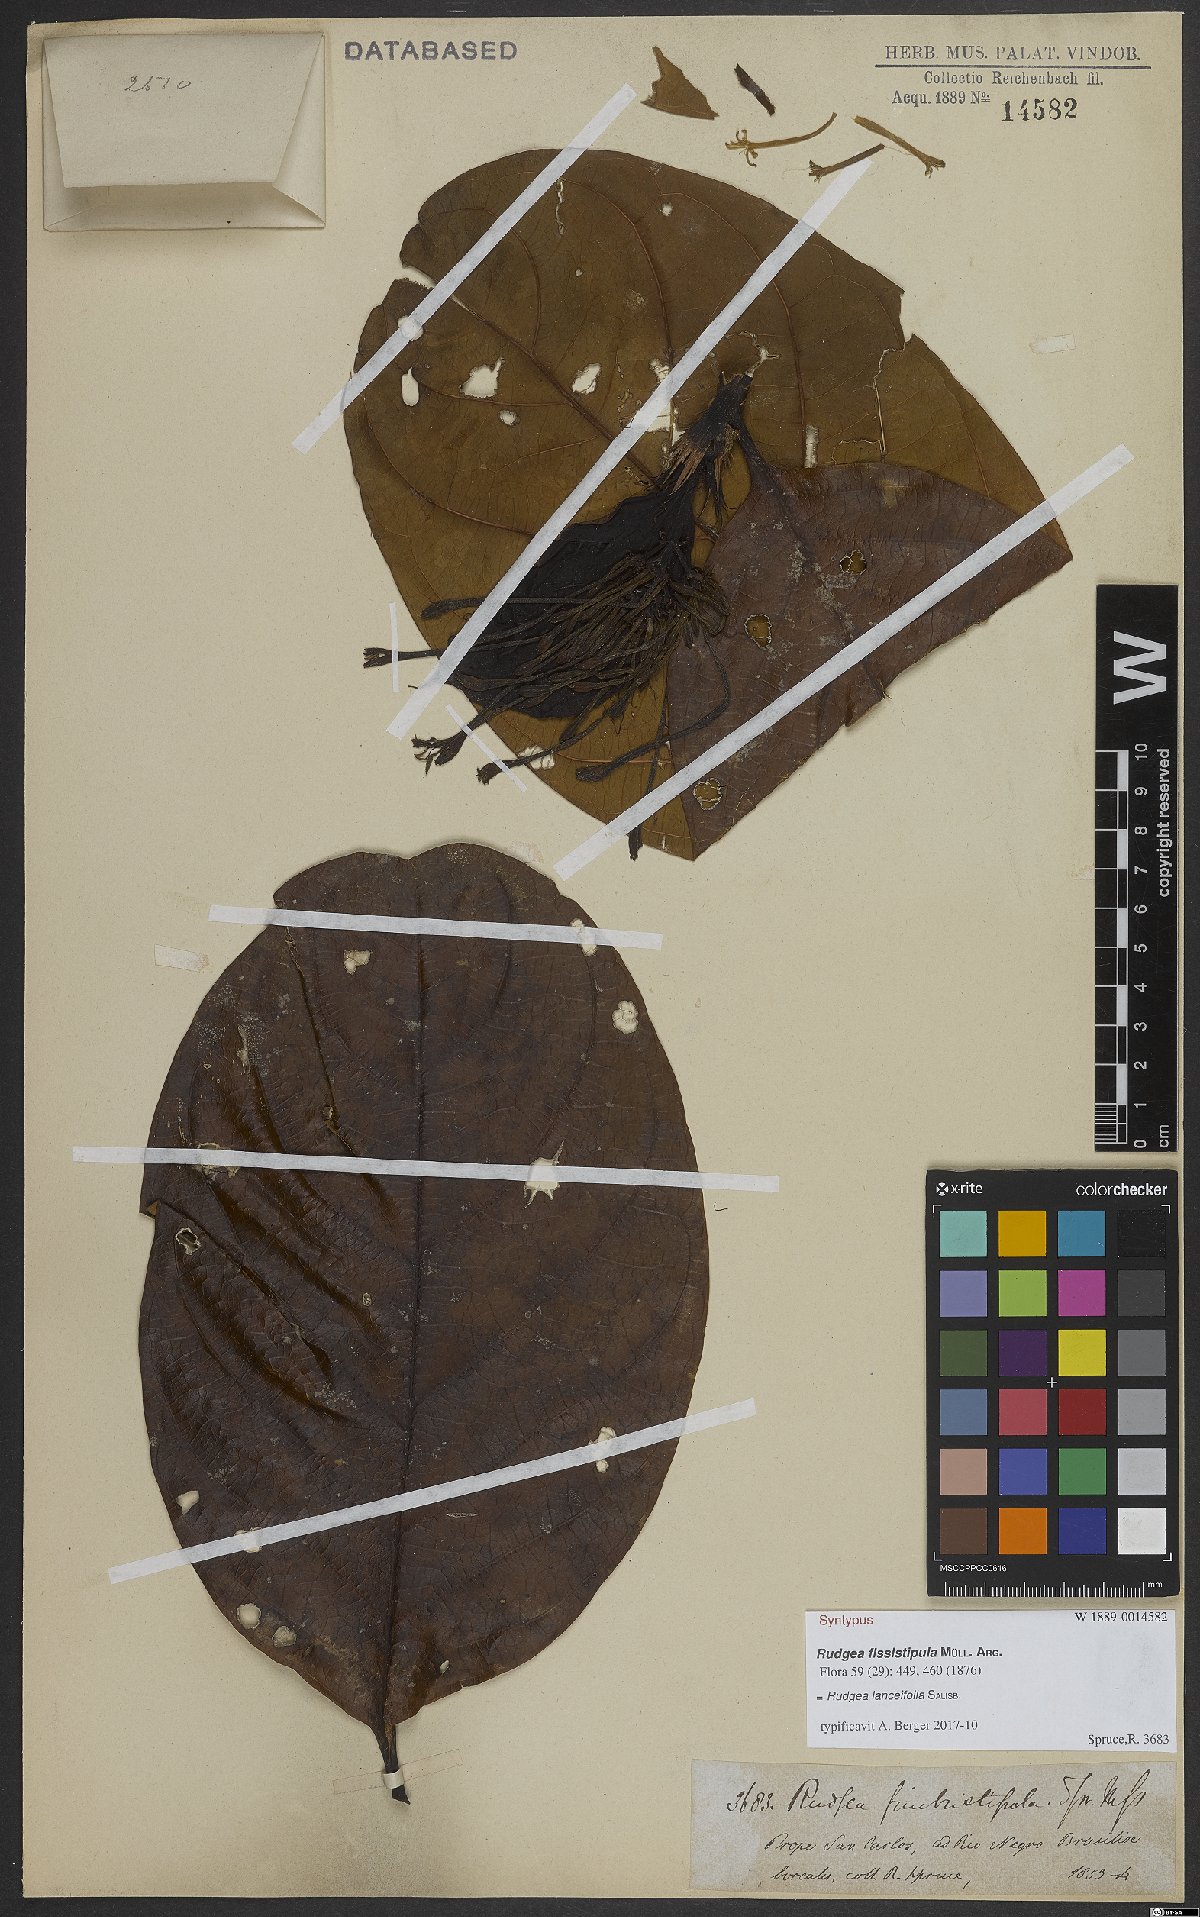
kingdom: Plantae
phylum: Tracheophyta
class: Magnoliopsida
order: Gentianales
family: Rubiaceae
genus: Rudgea
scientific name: Rudgea lanceifolia
